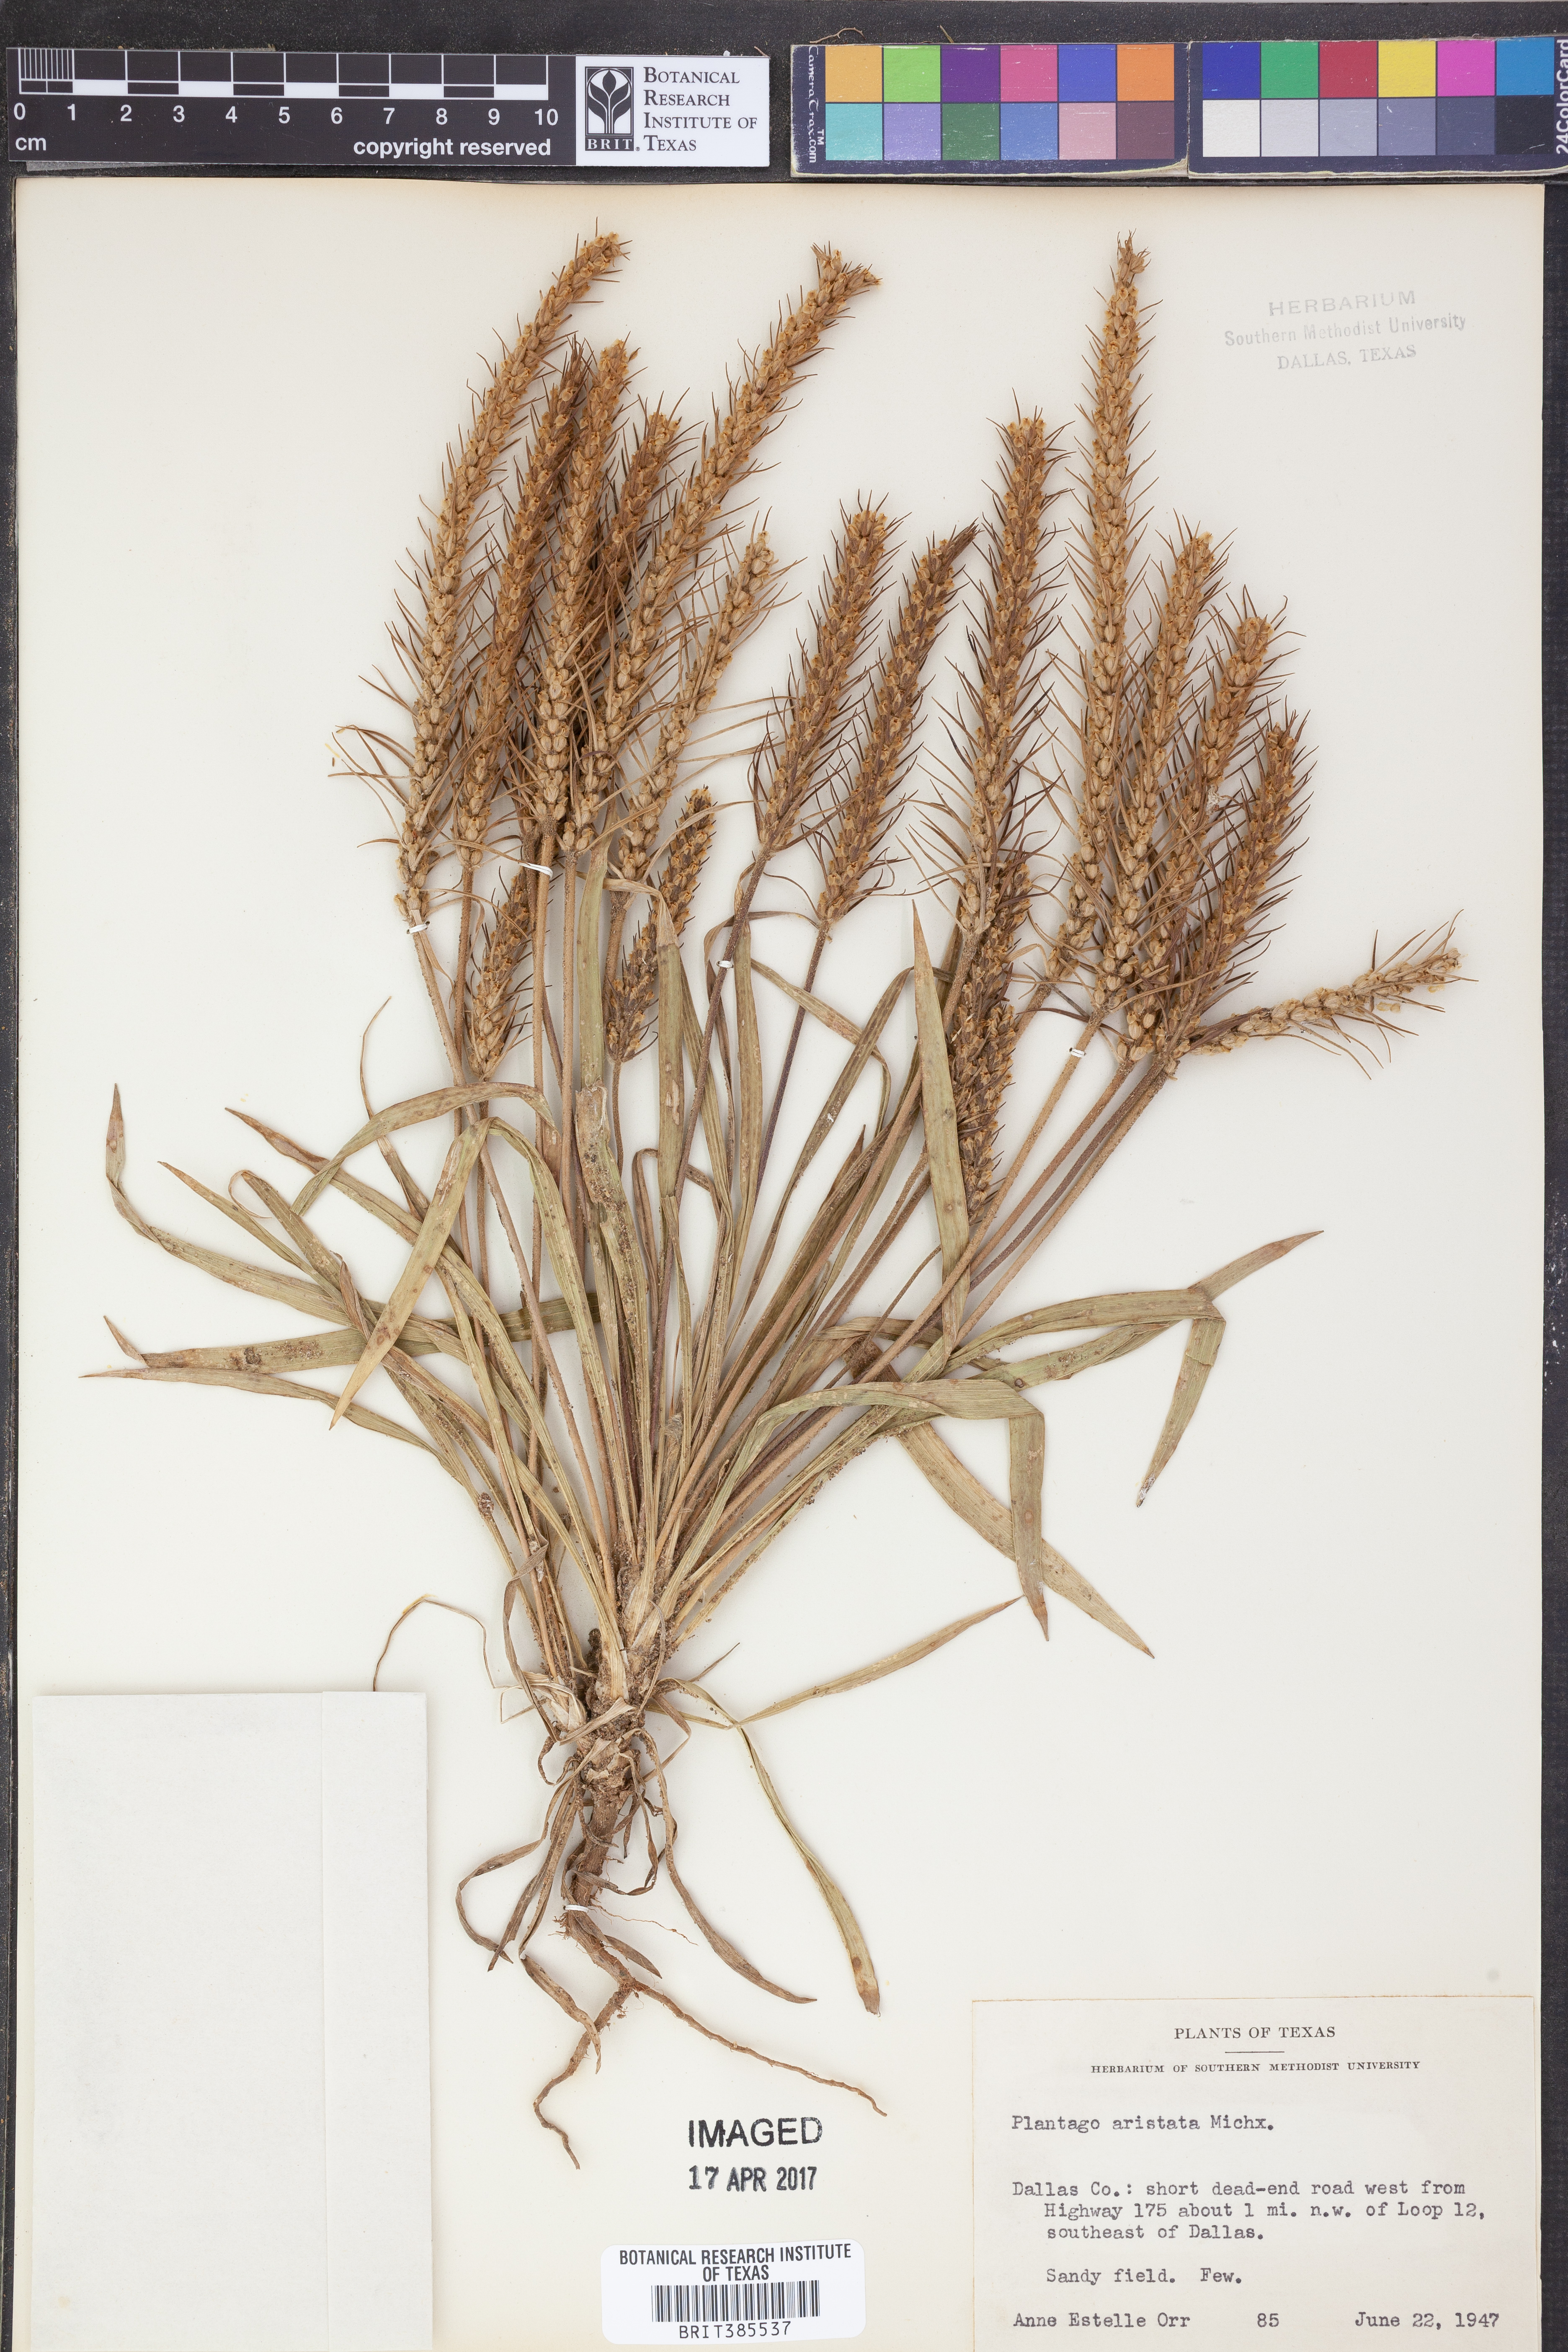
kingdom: Plantae
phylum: Tracheophyta
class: Magnoliopsida
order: Lamiales
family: Plantaginaceae
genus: Plantago
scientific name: Plantago aristata
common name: Bracted plantain
